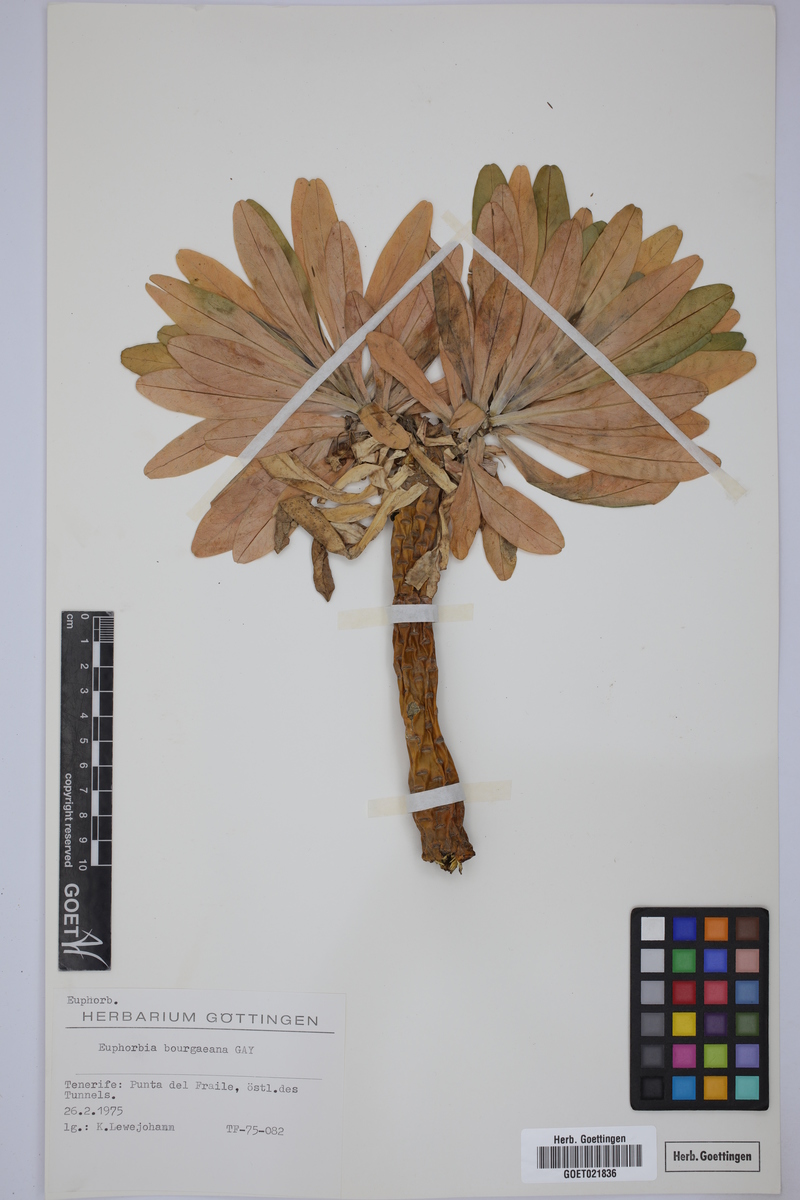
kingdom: Plantae
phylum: Tracheophyta
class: Magnoliopsida
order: Malpighiales
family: Euphorbiaceae
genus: Euphorbia
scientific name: Euphorbia bourgeana
